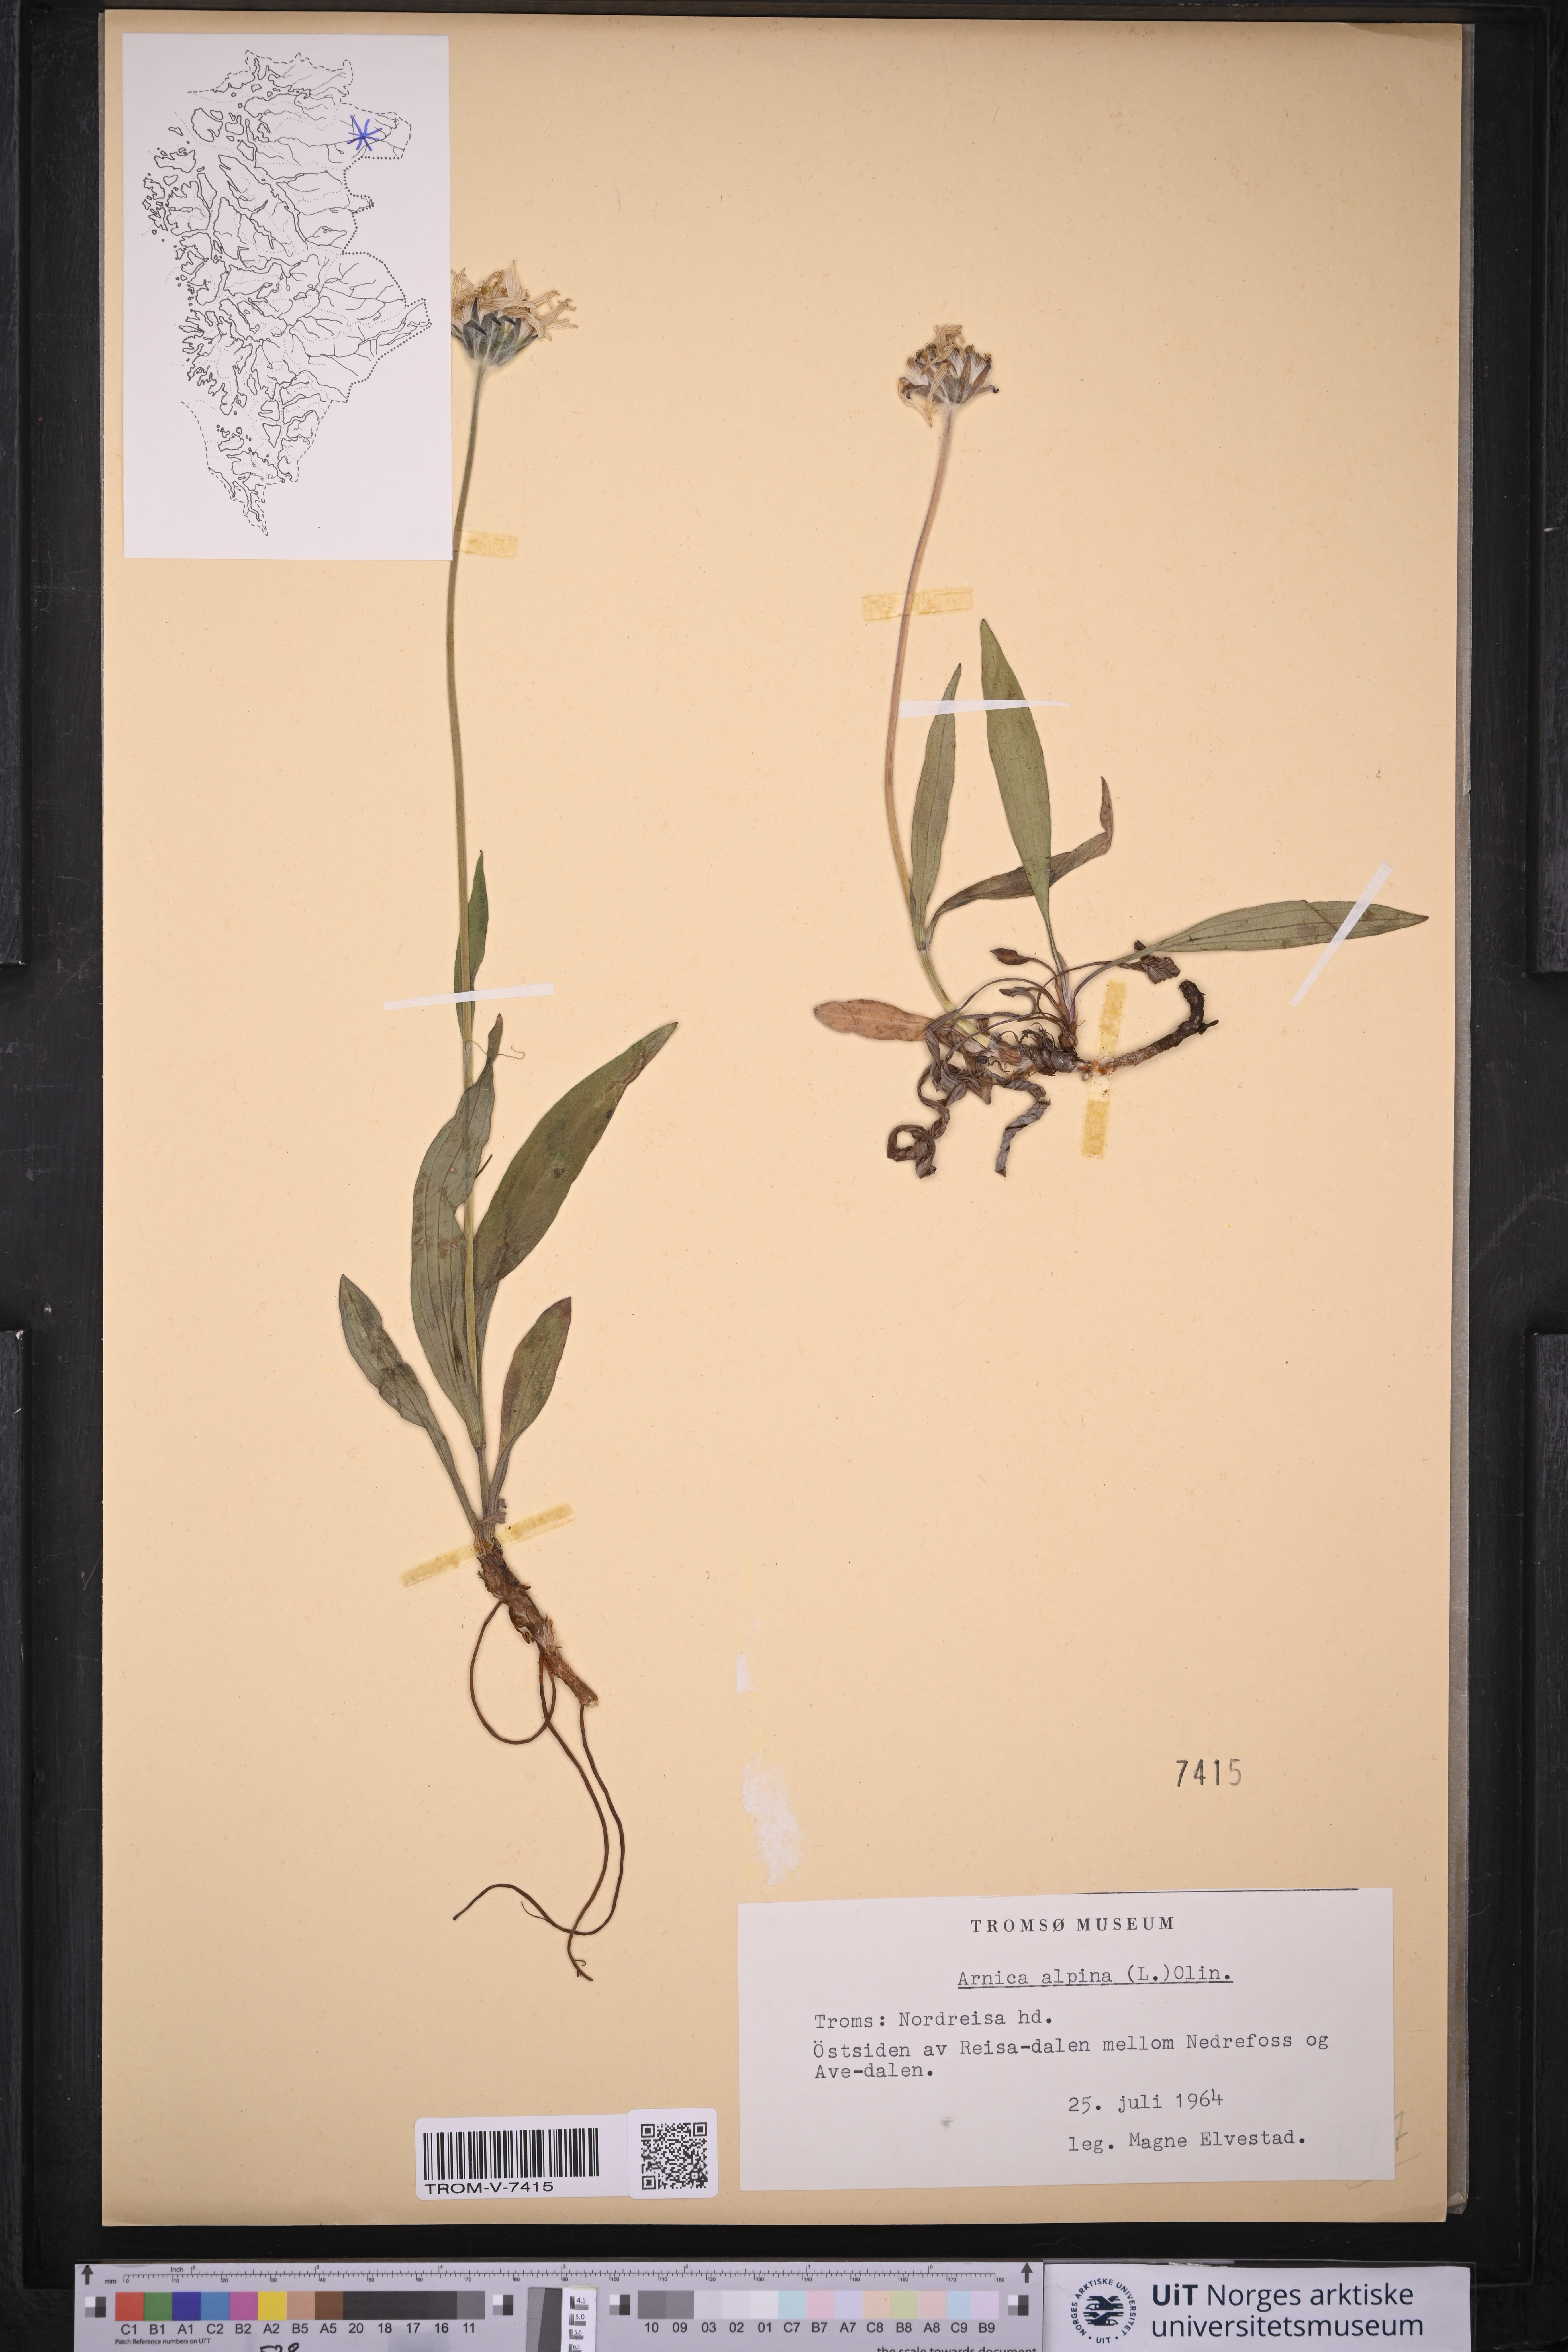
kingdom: Plantae
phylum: Tracheophyta
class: Magnoliopsida
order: Asterales
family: Asteraceae
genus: Arnica
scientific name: Arnica angustifolia
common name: Arctic arnica
